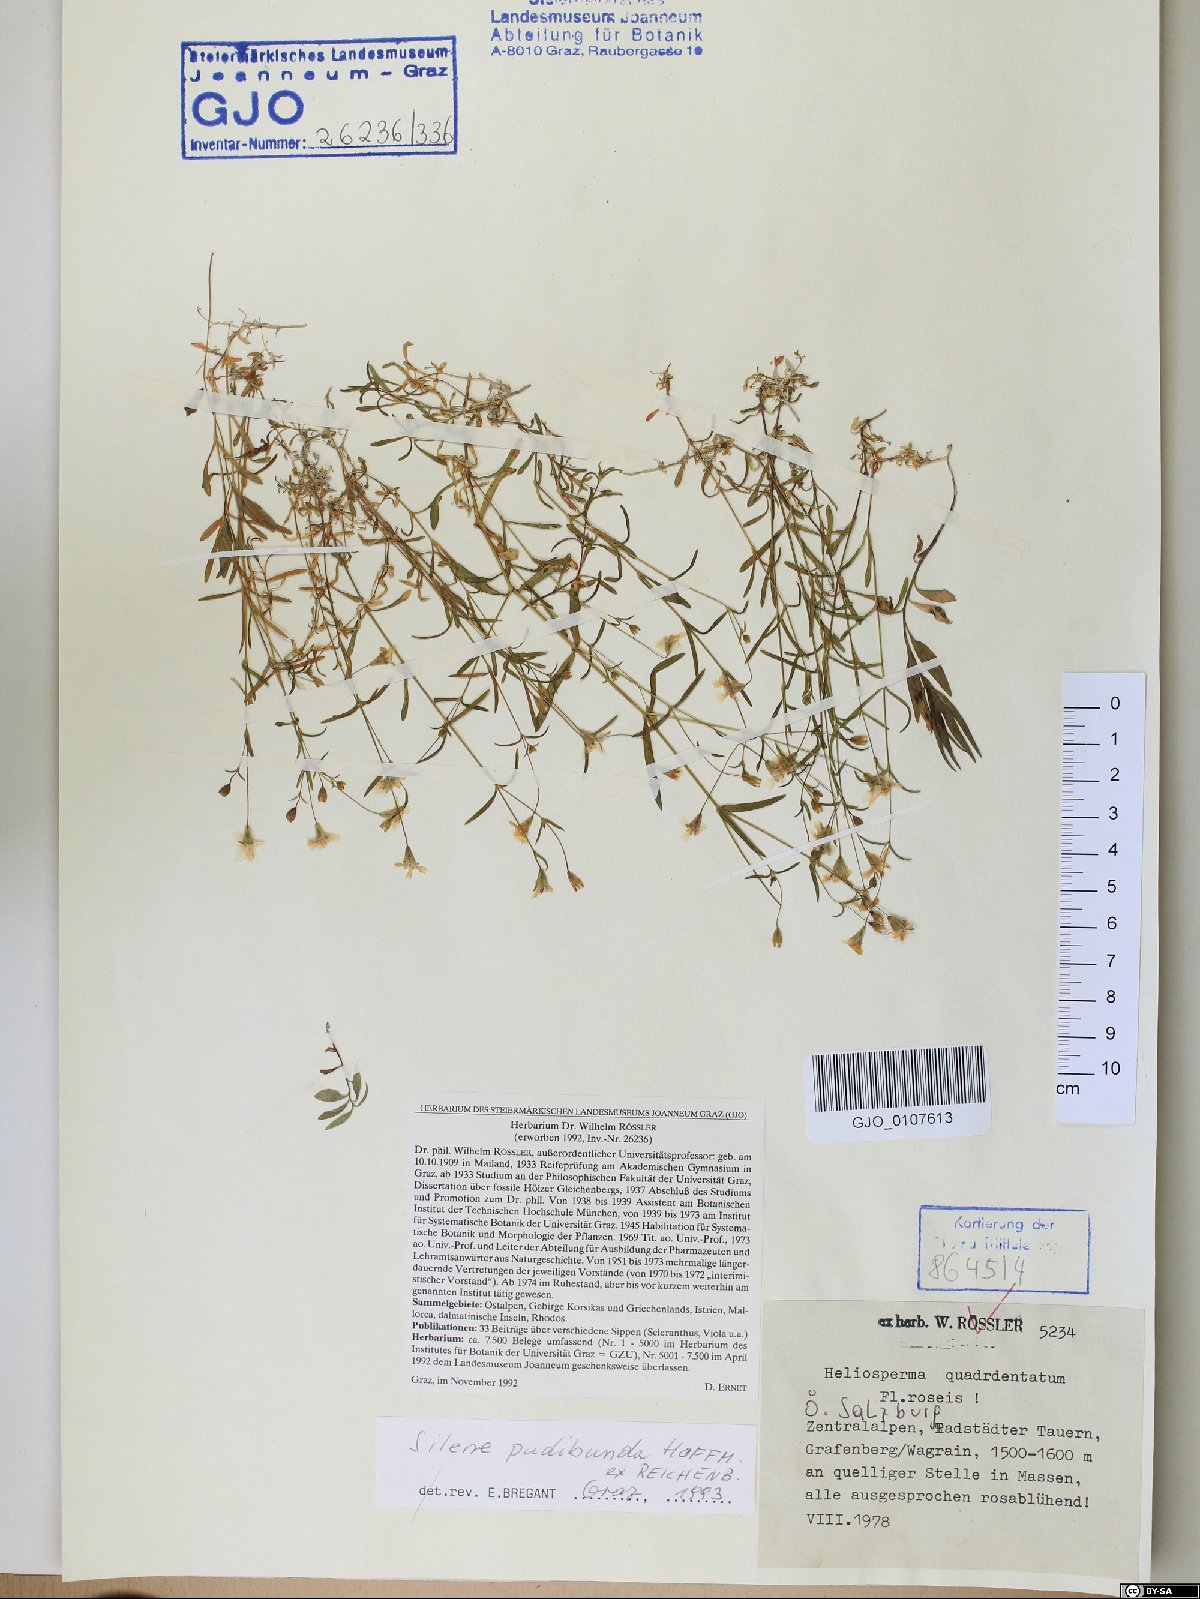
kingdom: Plantae
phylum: Tracheophyta
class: Magnoliopsida
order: Caryophyllales
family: Caryophyllaceae
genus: Heliosperma
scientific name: Heliosperma pudibundum
